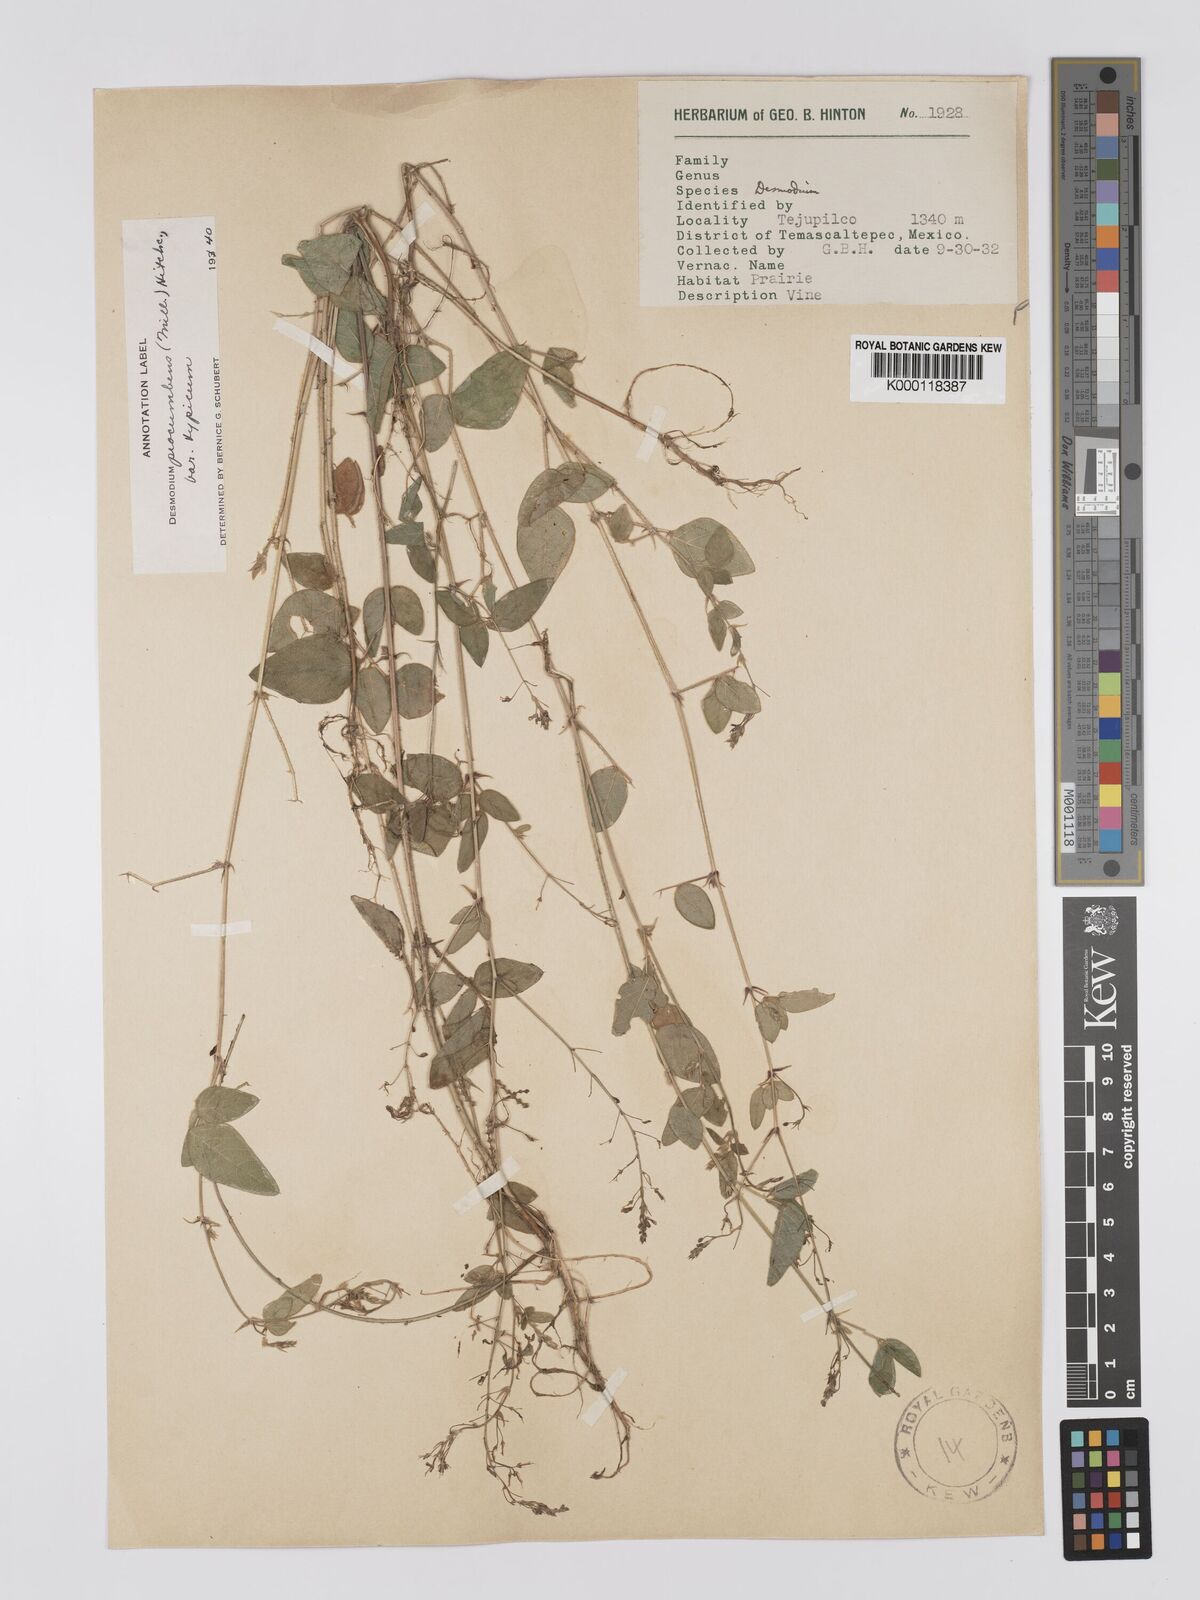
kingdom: Plantae
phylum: Tracheophyta
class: Magnoliopsida
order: Fabales
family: Fabaceae
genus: Desmodium
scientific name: Desmodium procumbens
